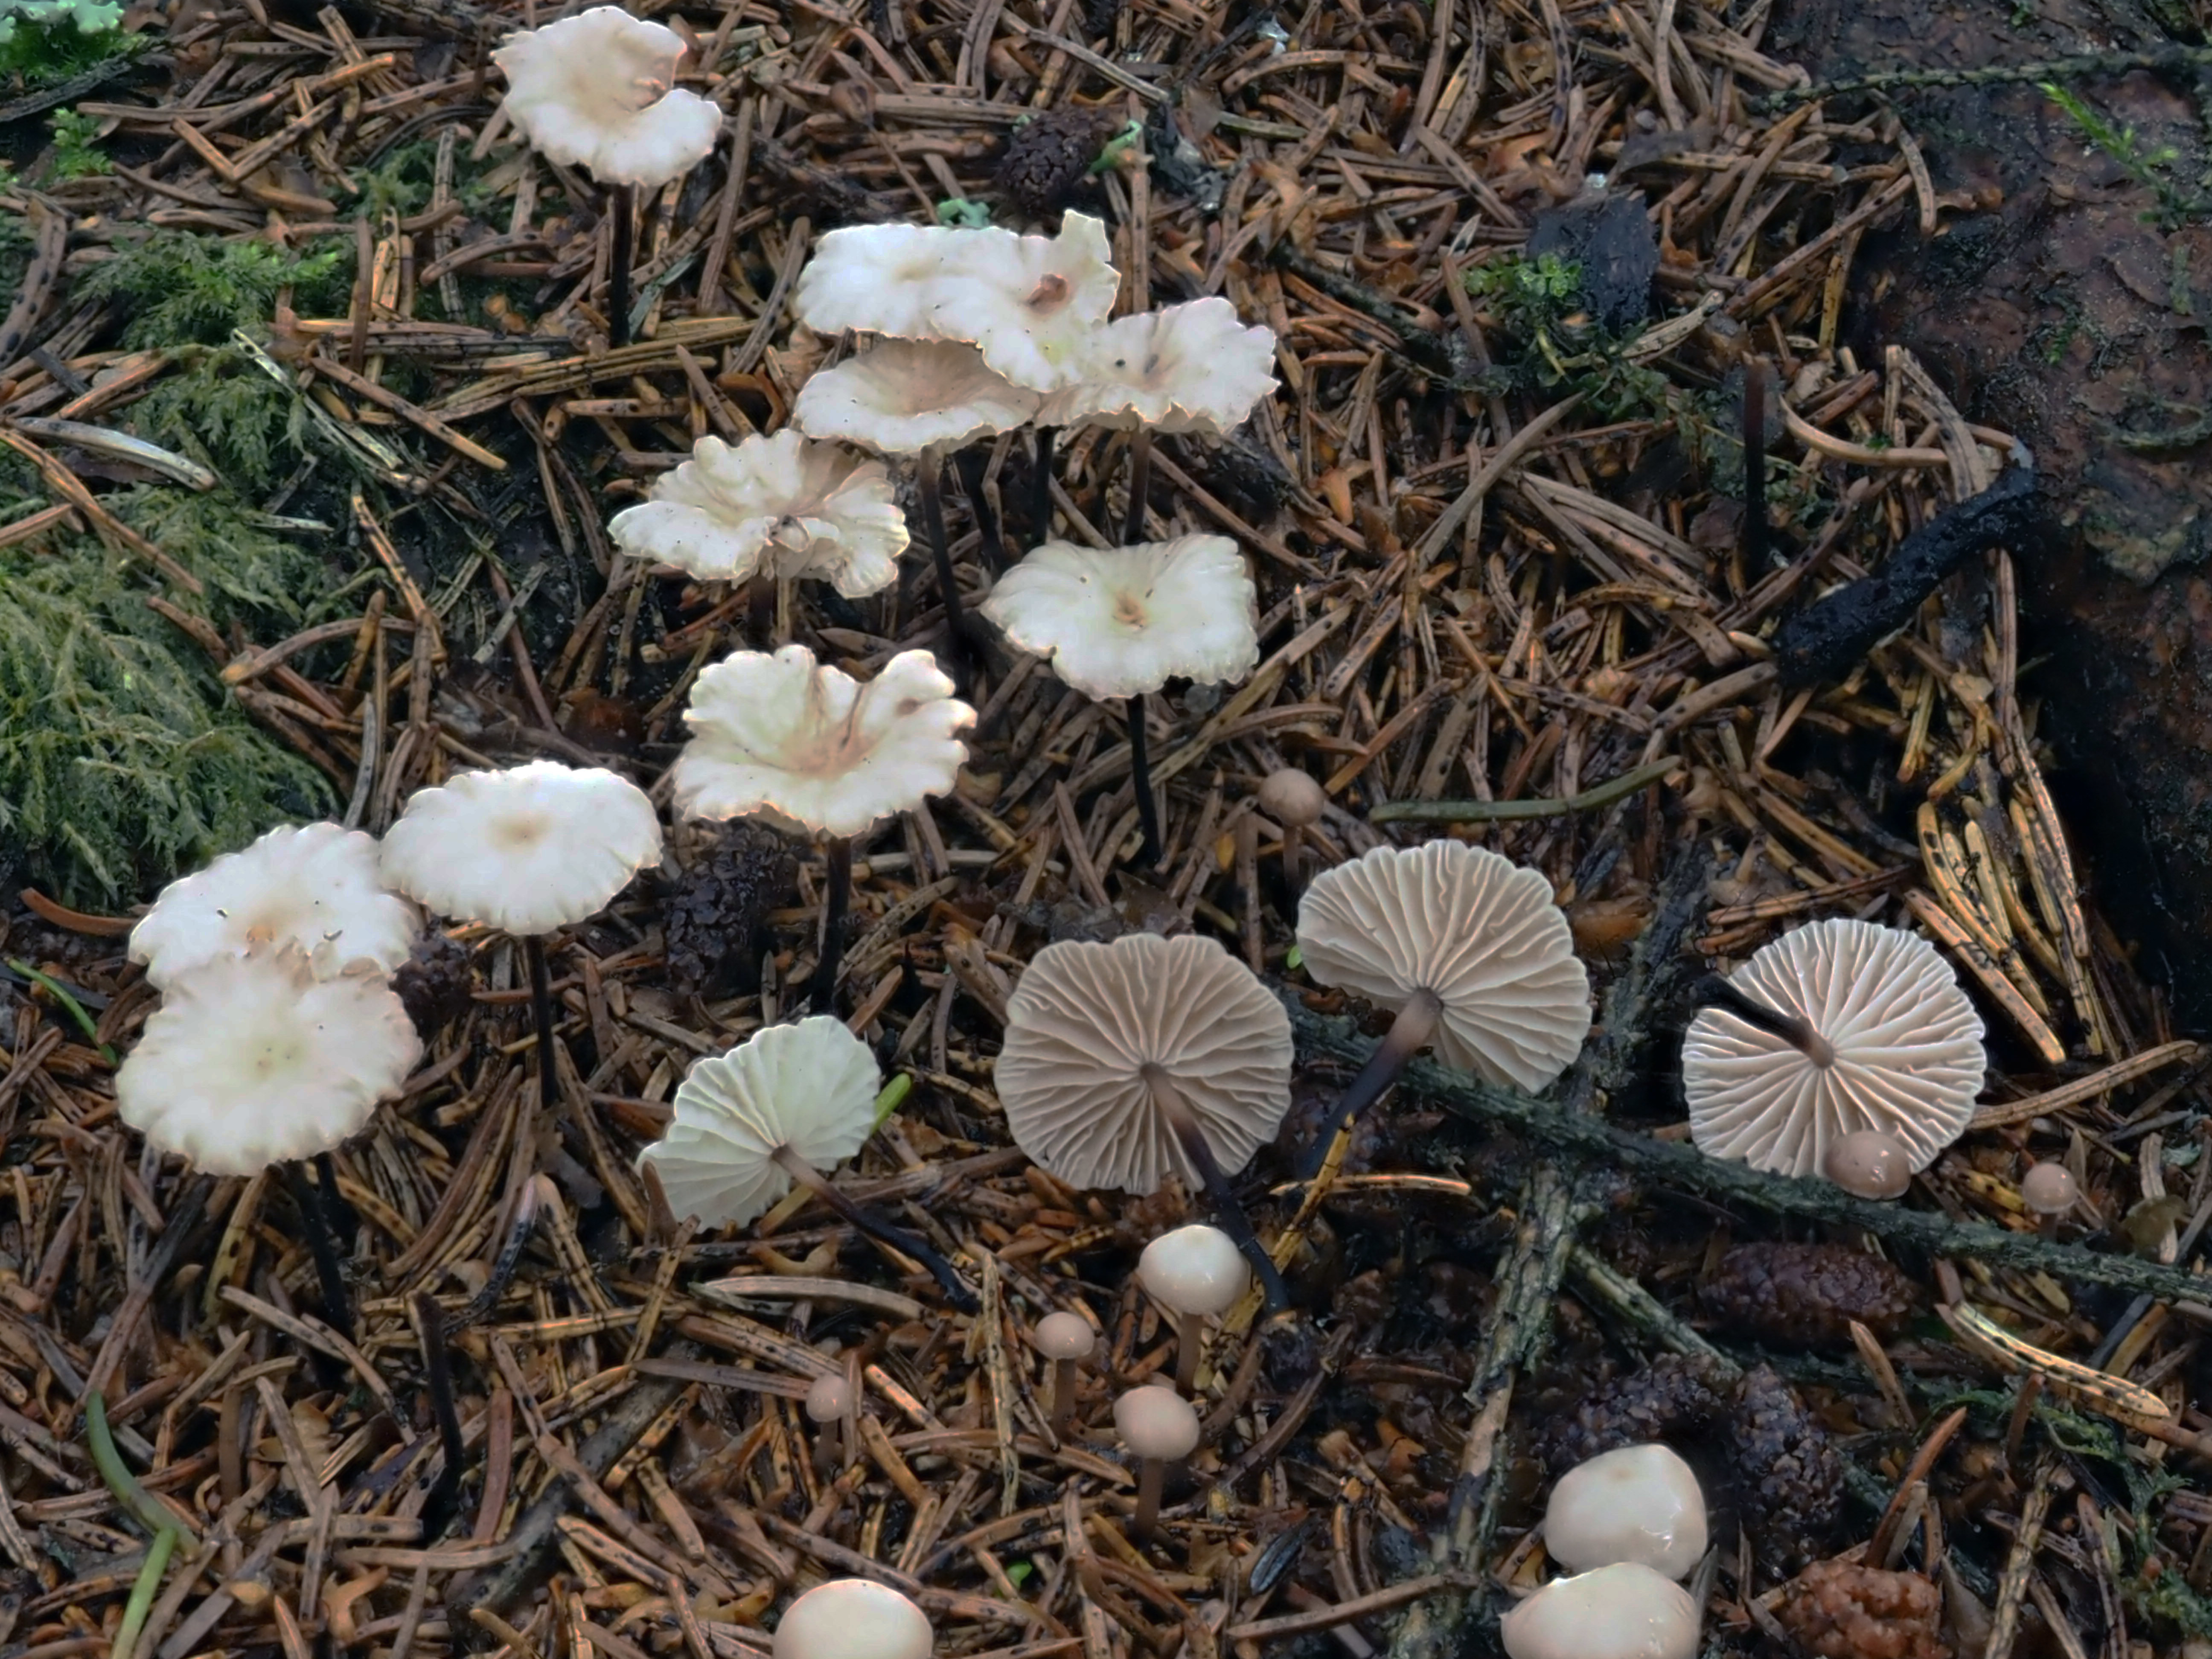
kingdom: Fungi
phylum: Basidiomycota
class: Agaricomycetes
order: Agaricales
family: Omphalotaceae
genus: Paragymnopus
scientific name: Paragymnopus perforans
